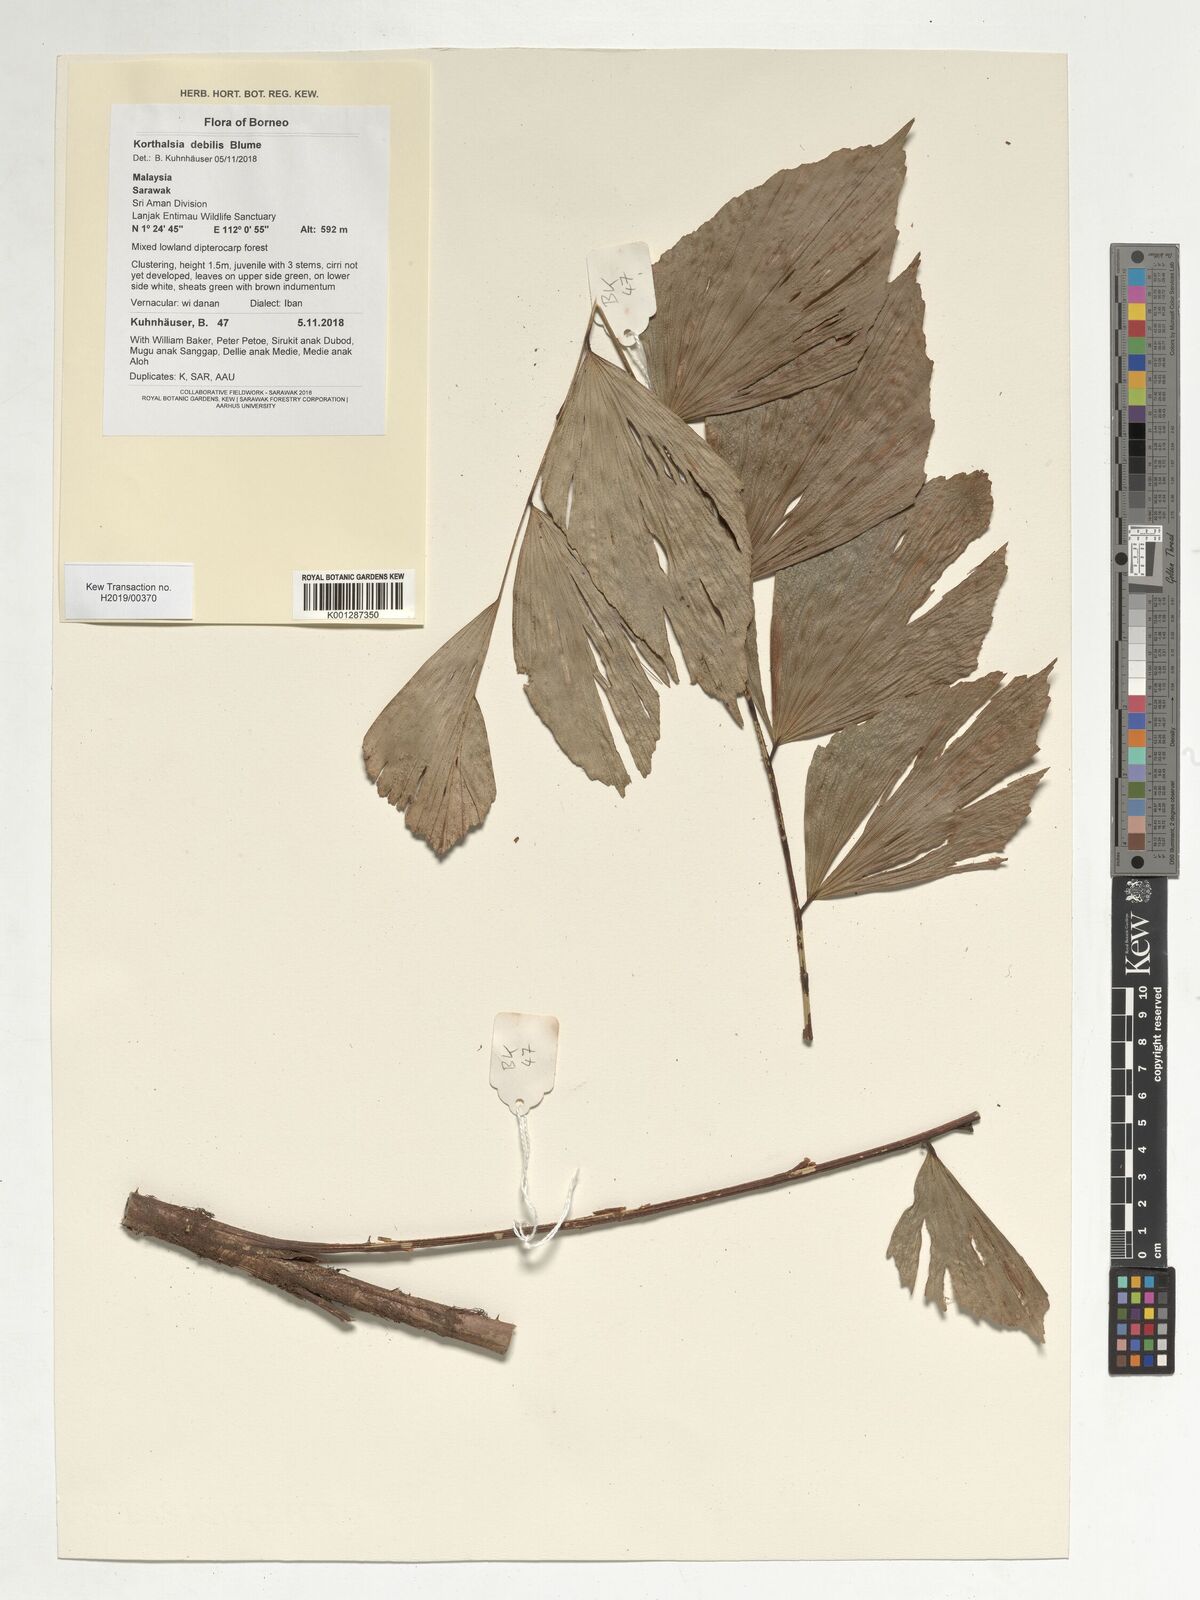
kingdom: Plantae
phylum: Tracheophyta
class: Liliopsida
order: Arecales
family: Arecaceae
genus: Korthalsia
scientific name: Korthalsia debilis
